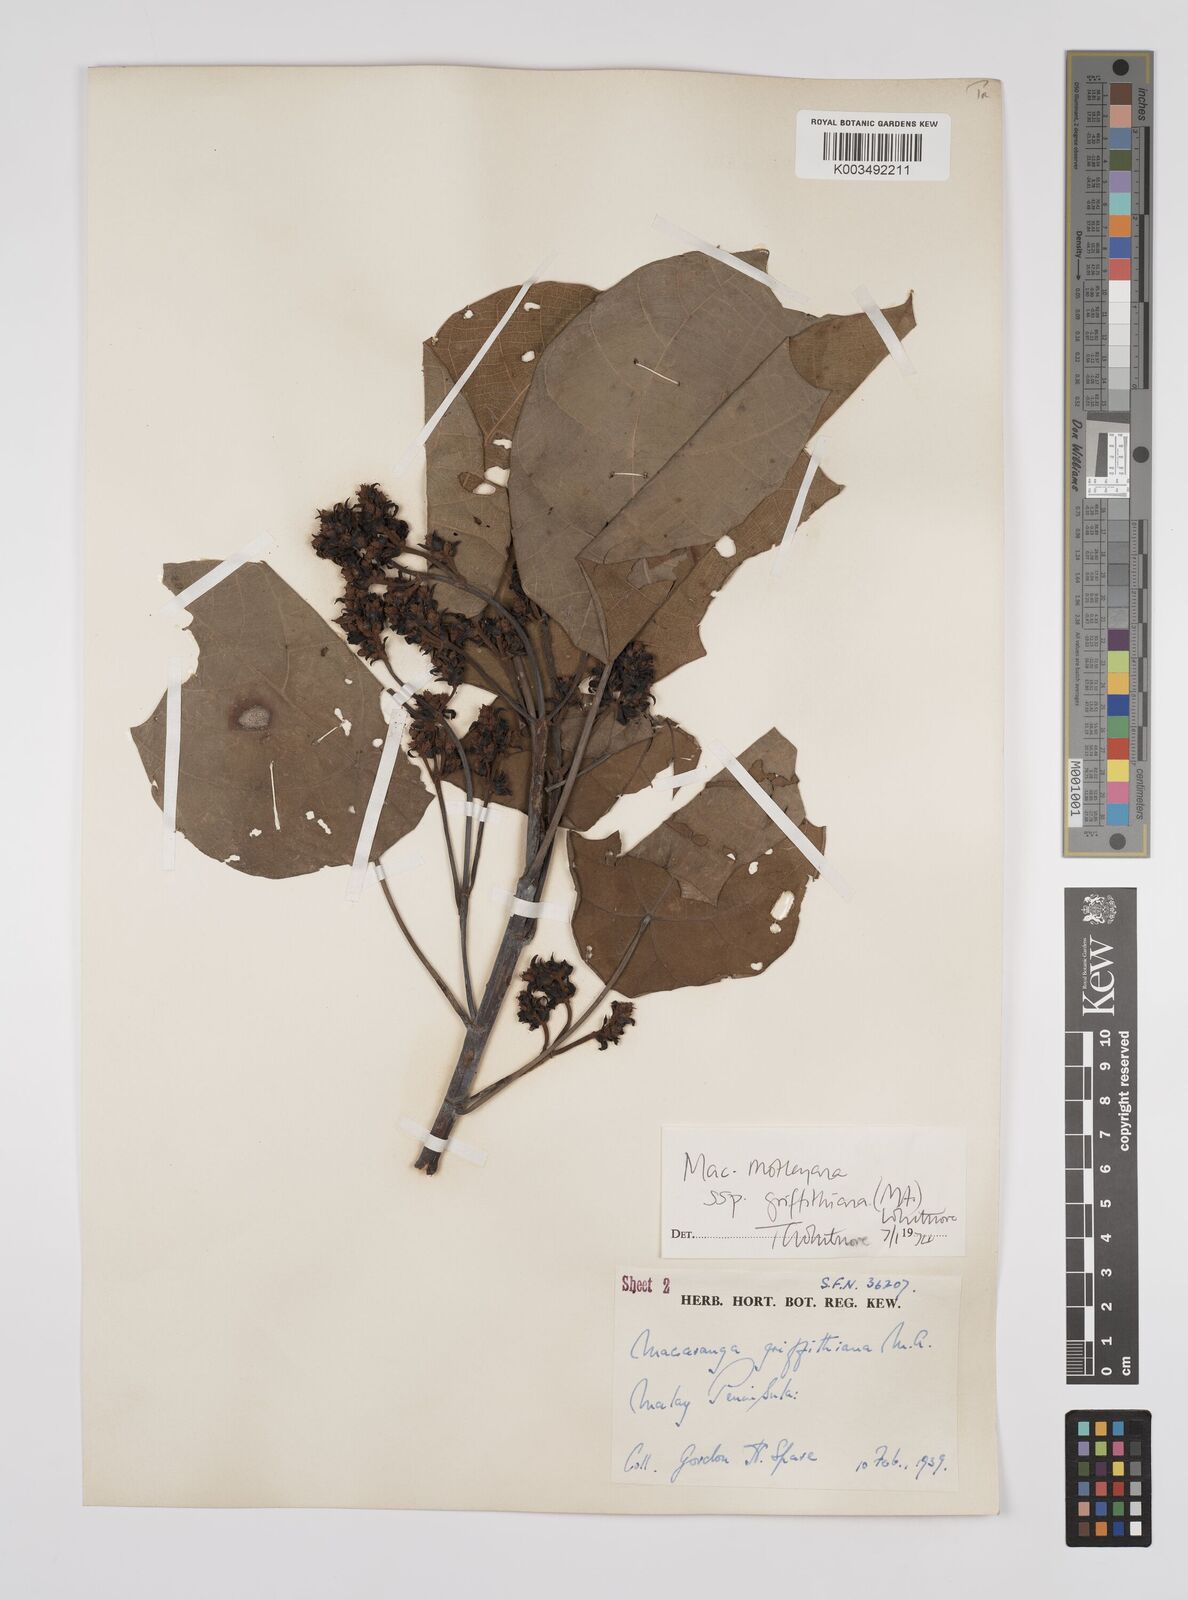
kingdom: Plantae
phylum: Tracheophyta
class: Magnoliopsida
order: Malpighiales
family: Euphorbiaceae
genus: Macaranga
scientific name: Macaranga griffithiana
